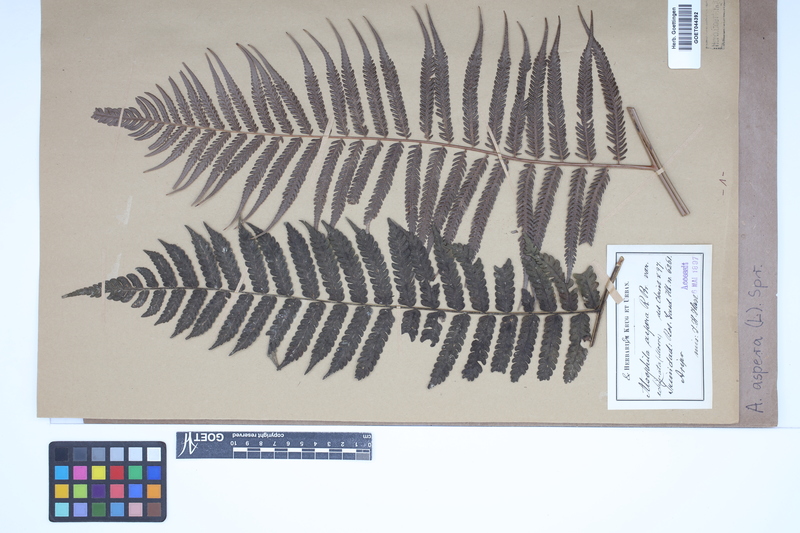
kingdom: Plantae
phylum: Tracheophyta
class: Polypodiopsida
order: Cyatheales
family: Cyatheaceae
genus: Cyathea
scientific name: Cyathea aspera
